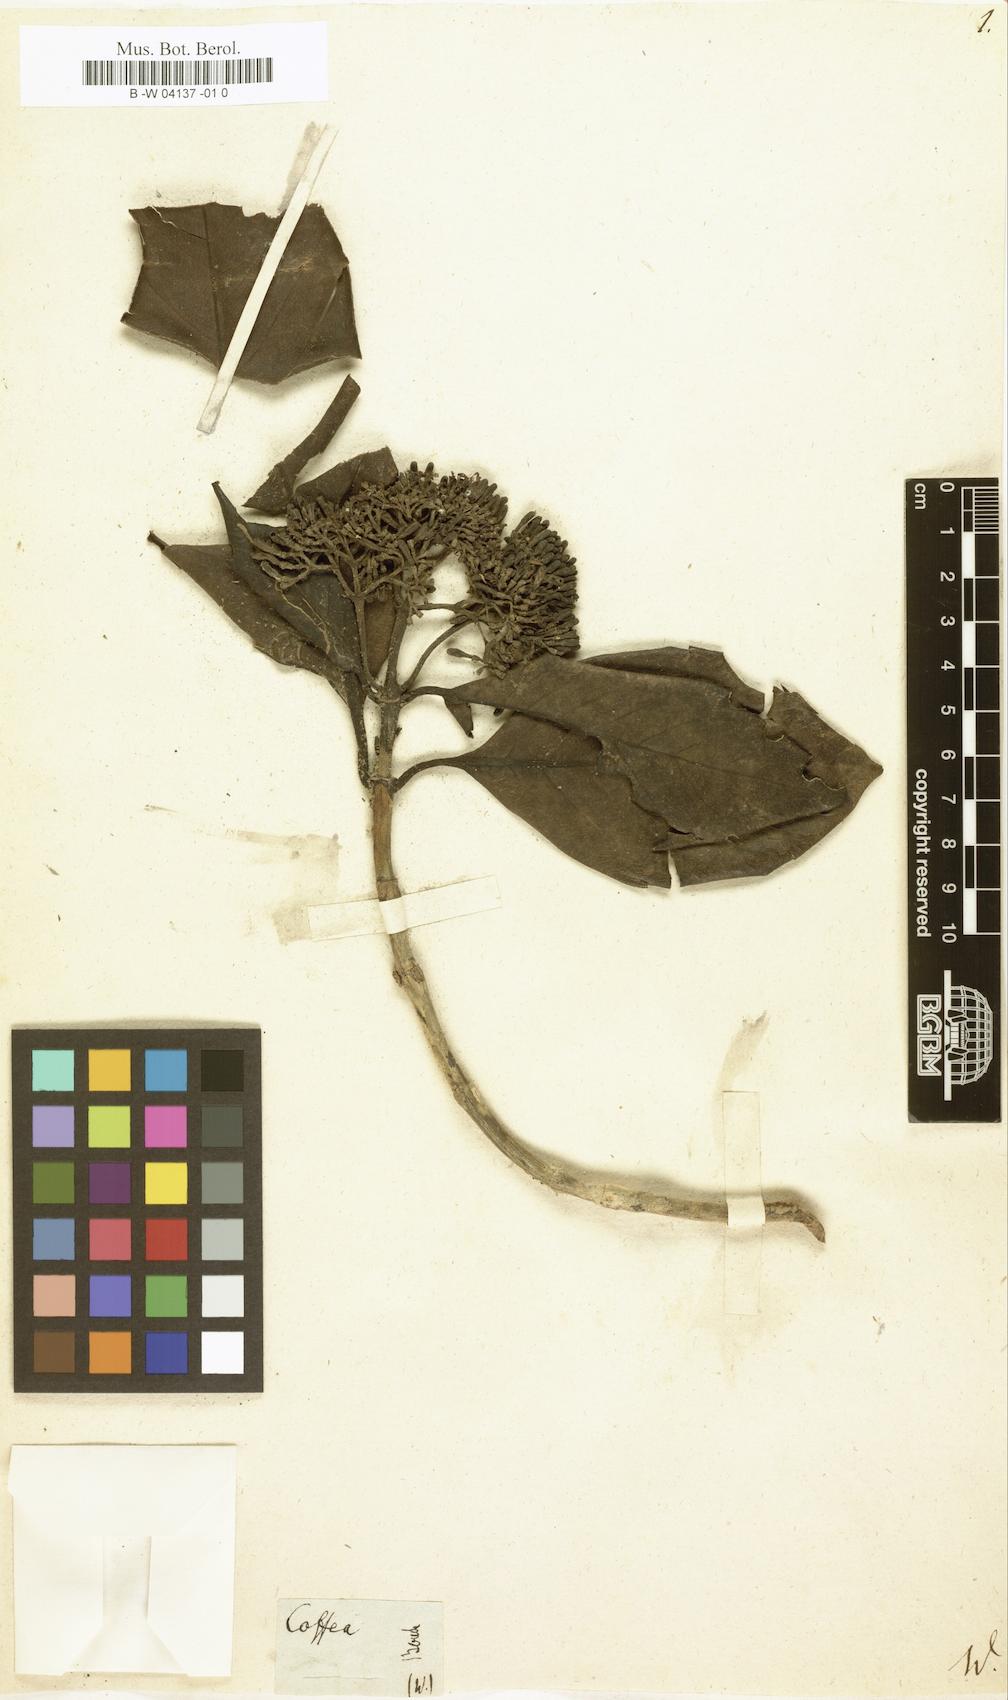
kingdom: Plantae
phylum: Tracheophyta
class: Magnoliopsida
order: Gentianales
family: Rubiaceae
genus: Coptosperma
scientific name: Coptosperma cymosum
